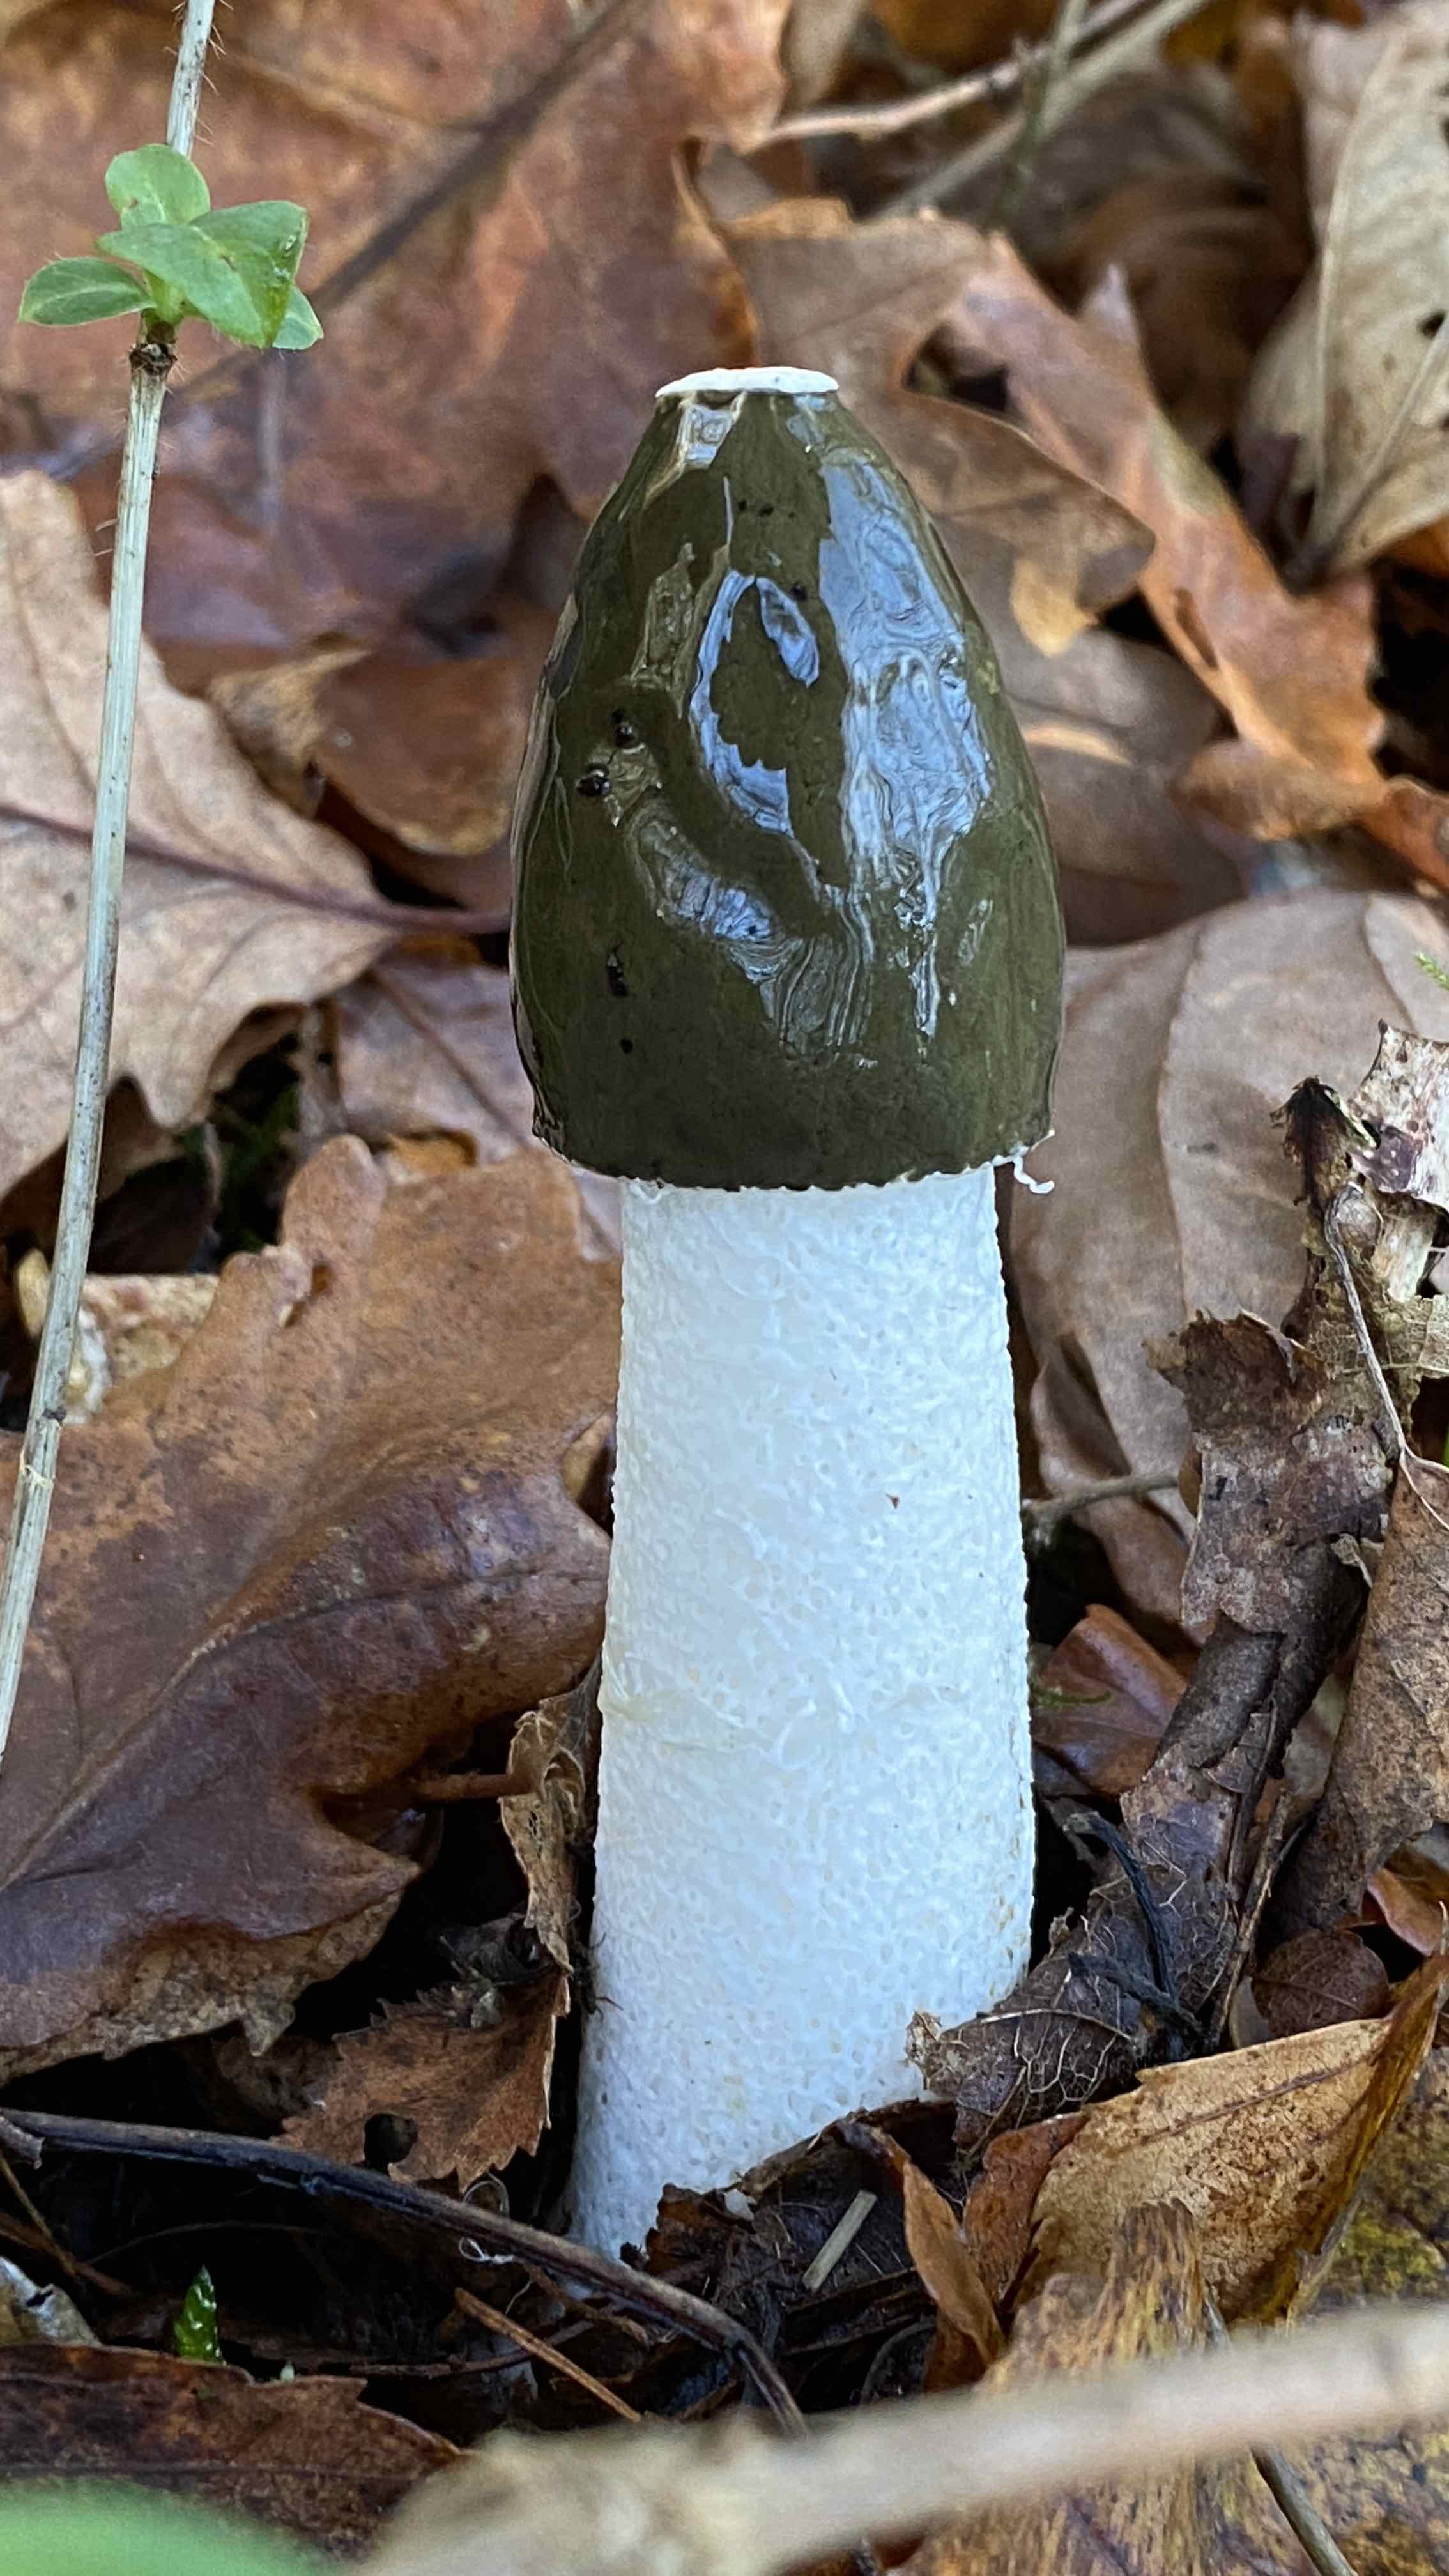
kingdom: Fungi
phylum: Basidiomycota
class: Agaricomycetes
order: Phallales
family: Phallaceae
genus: Phallus
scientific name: Phallus impudicus
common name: almindelig stinksvamp
